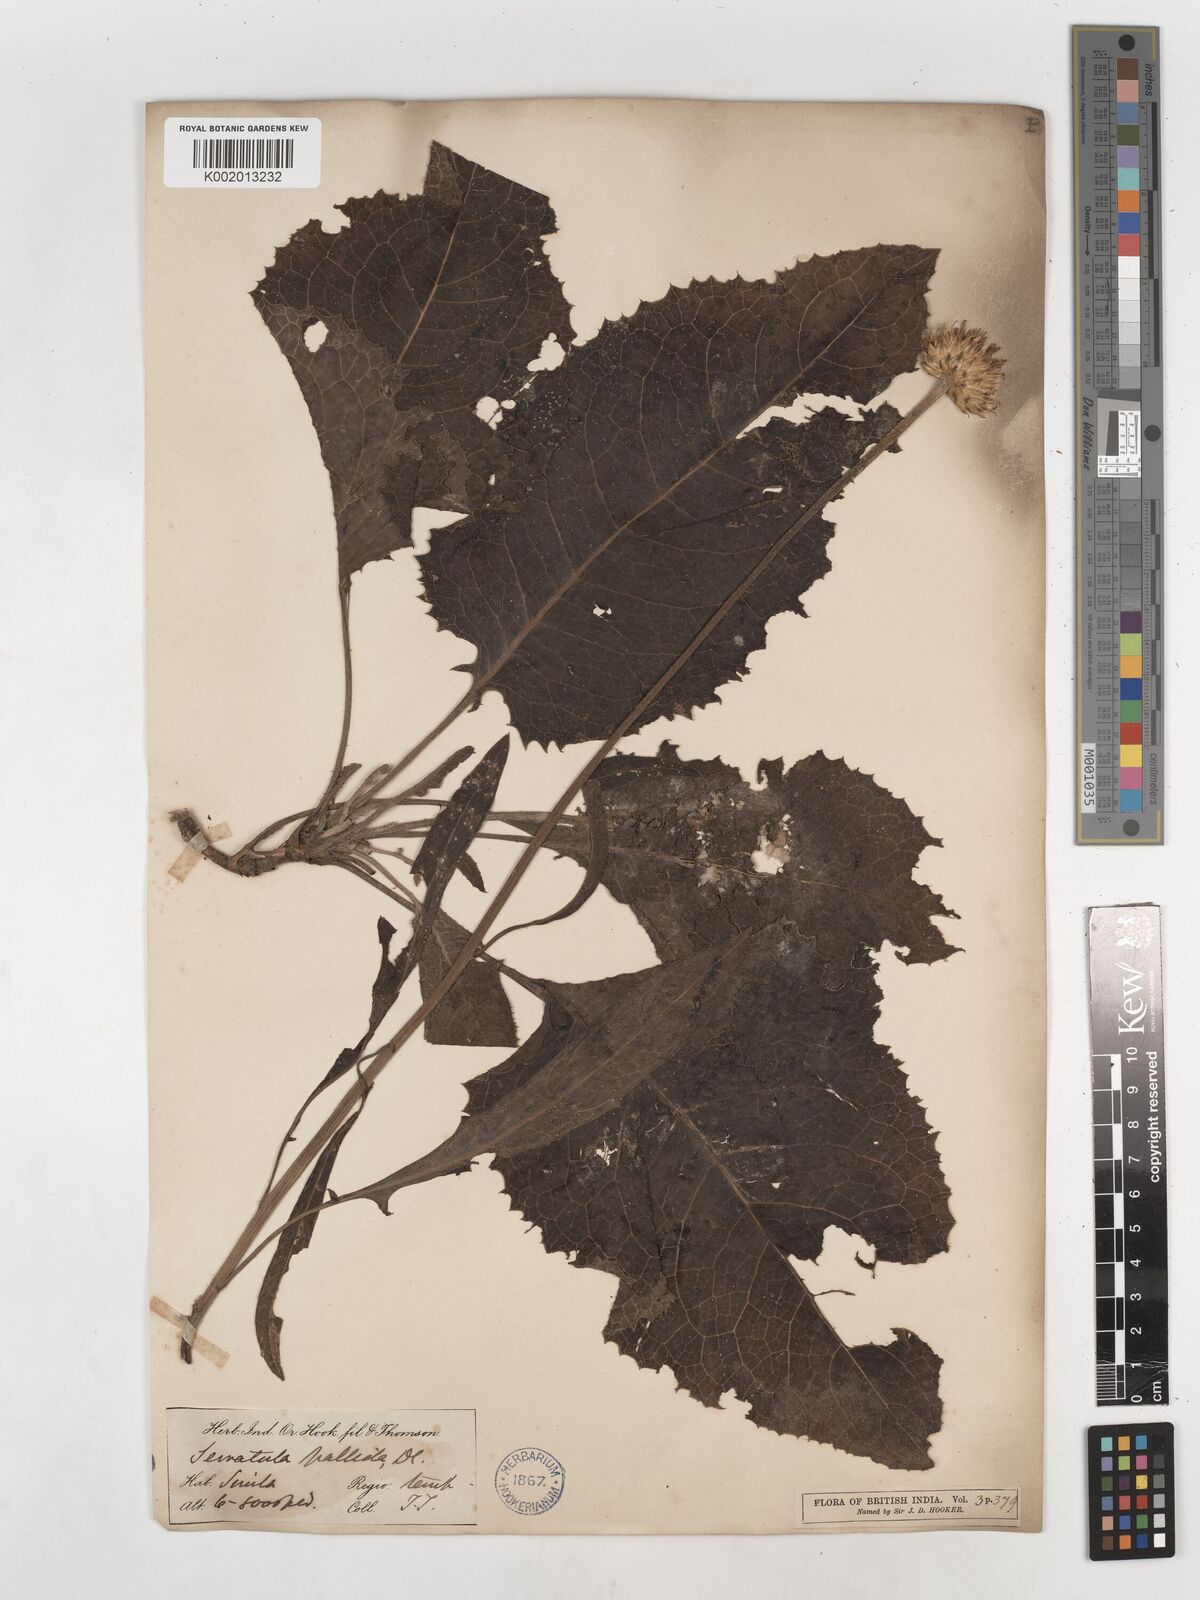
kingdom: Plantae
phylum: Tracheophyta
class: Magnoliopsida
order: Asterales
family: Asteraceae
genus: Klasea
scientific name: Klasea pallida
